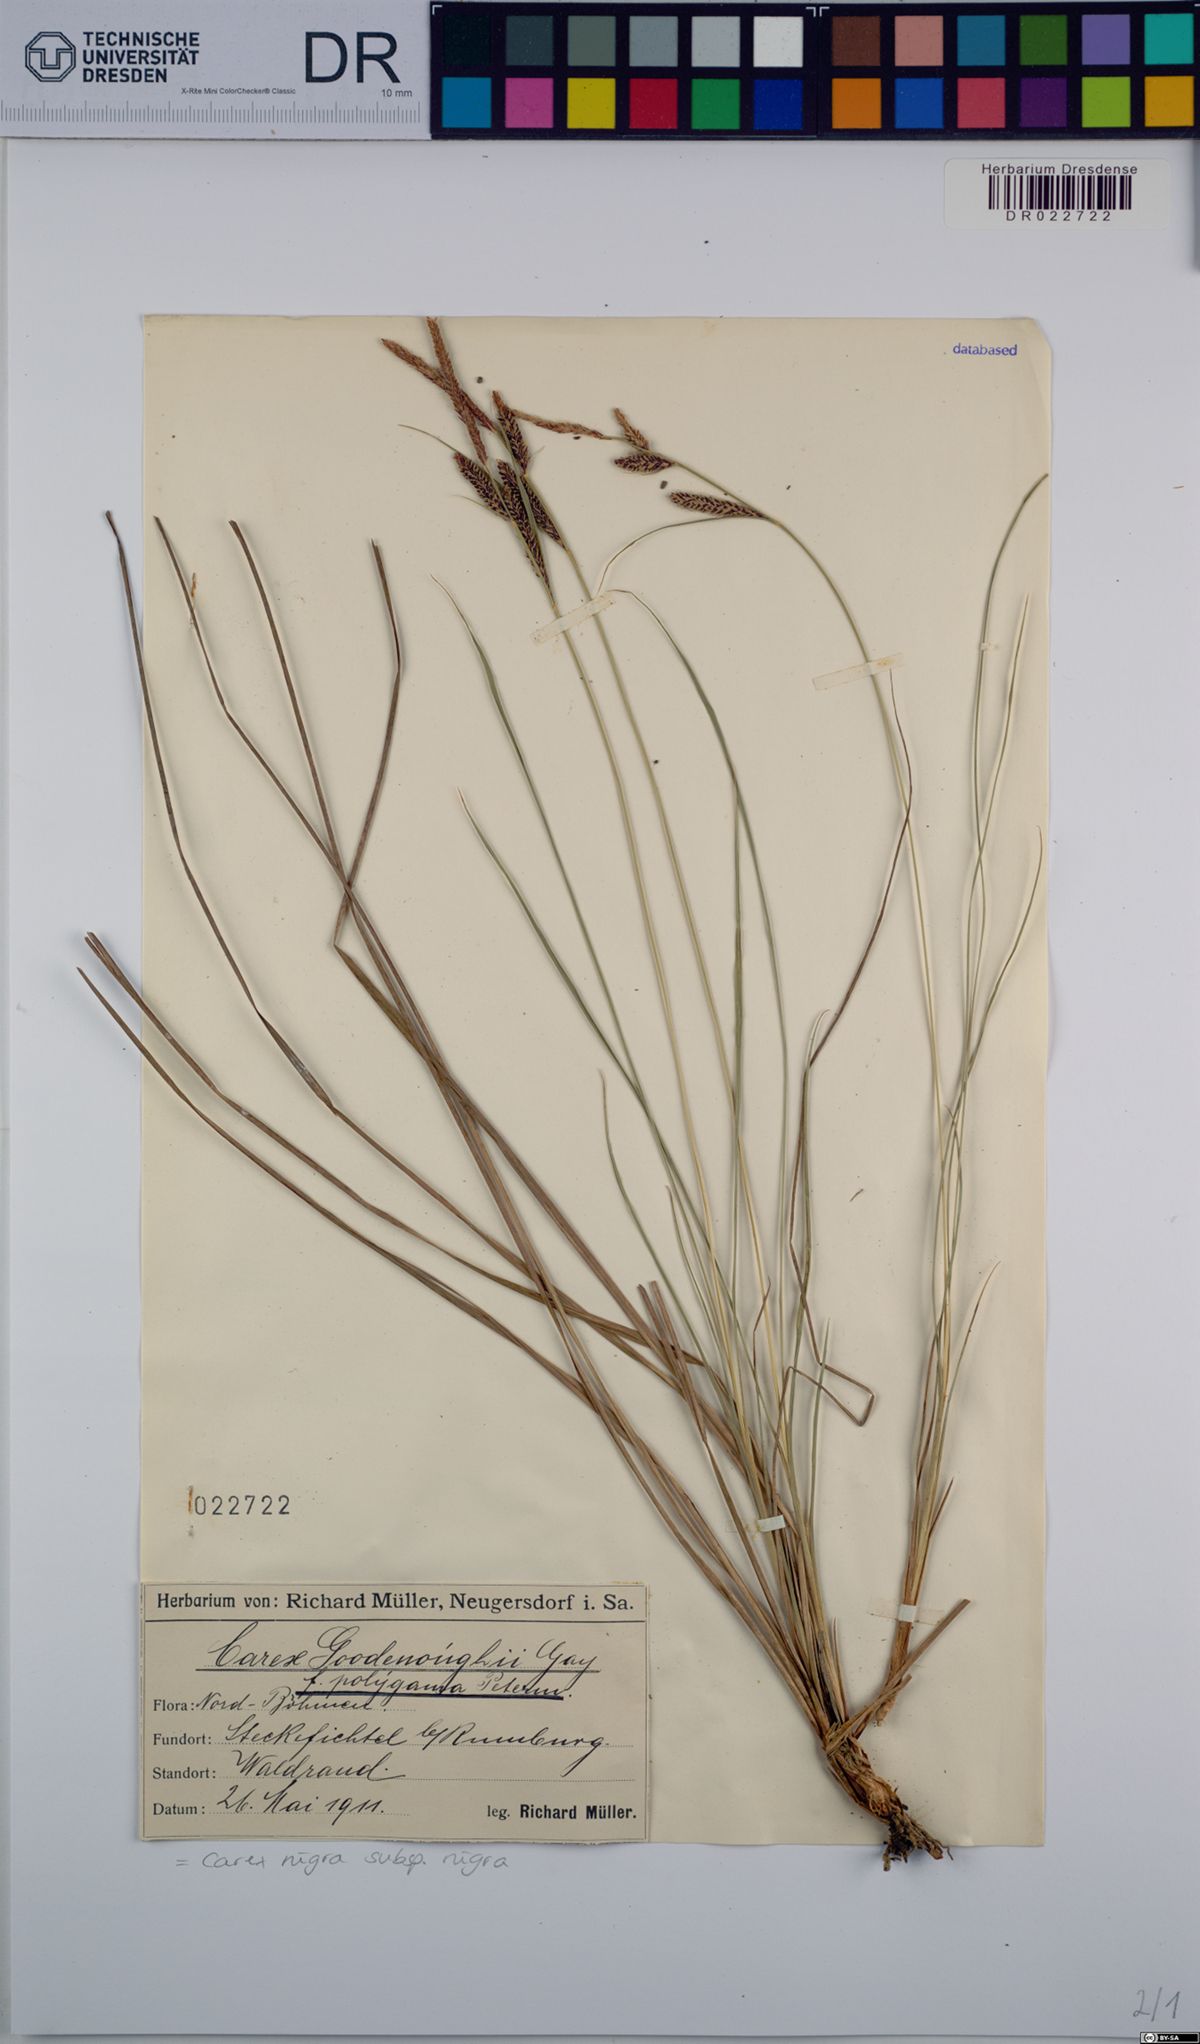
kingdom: Plantae
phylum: Tracheophyta
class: Liliopsida
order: Poales
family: Cyperaceae
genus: Carex
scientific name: Carex nigra
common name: Common sedge
